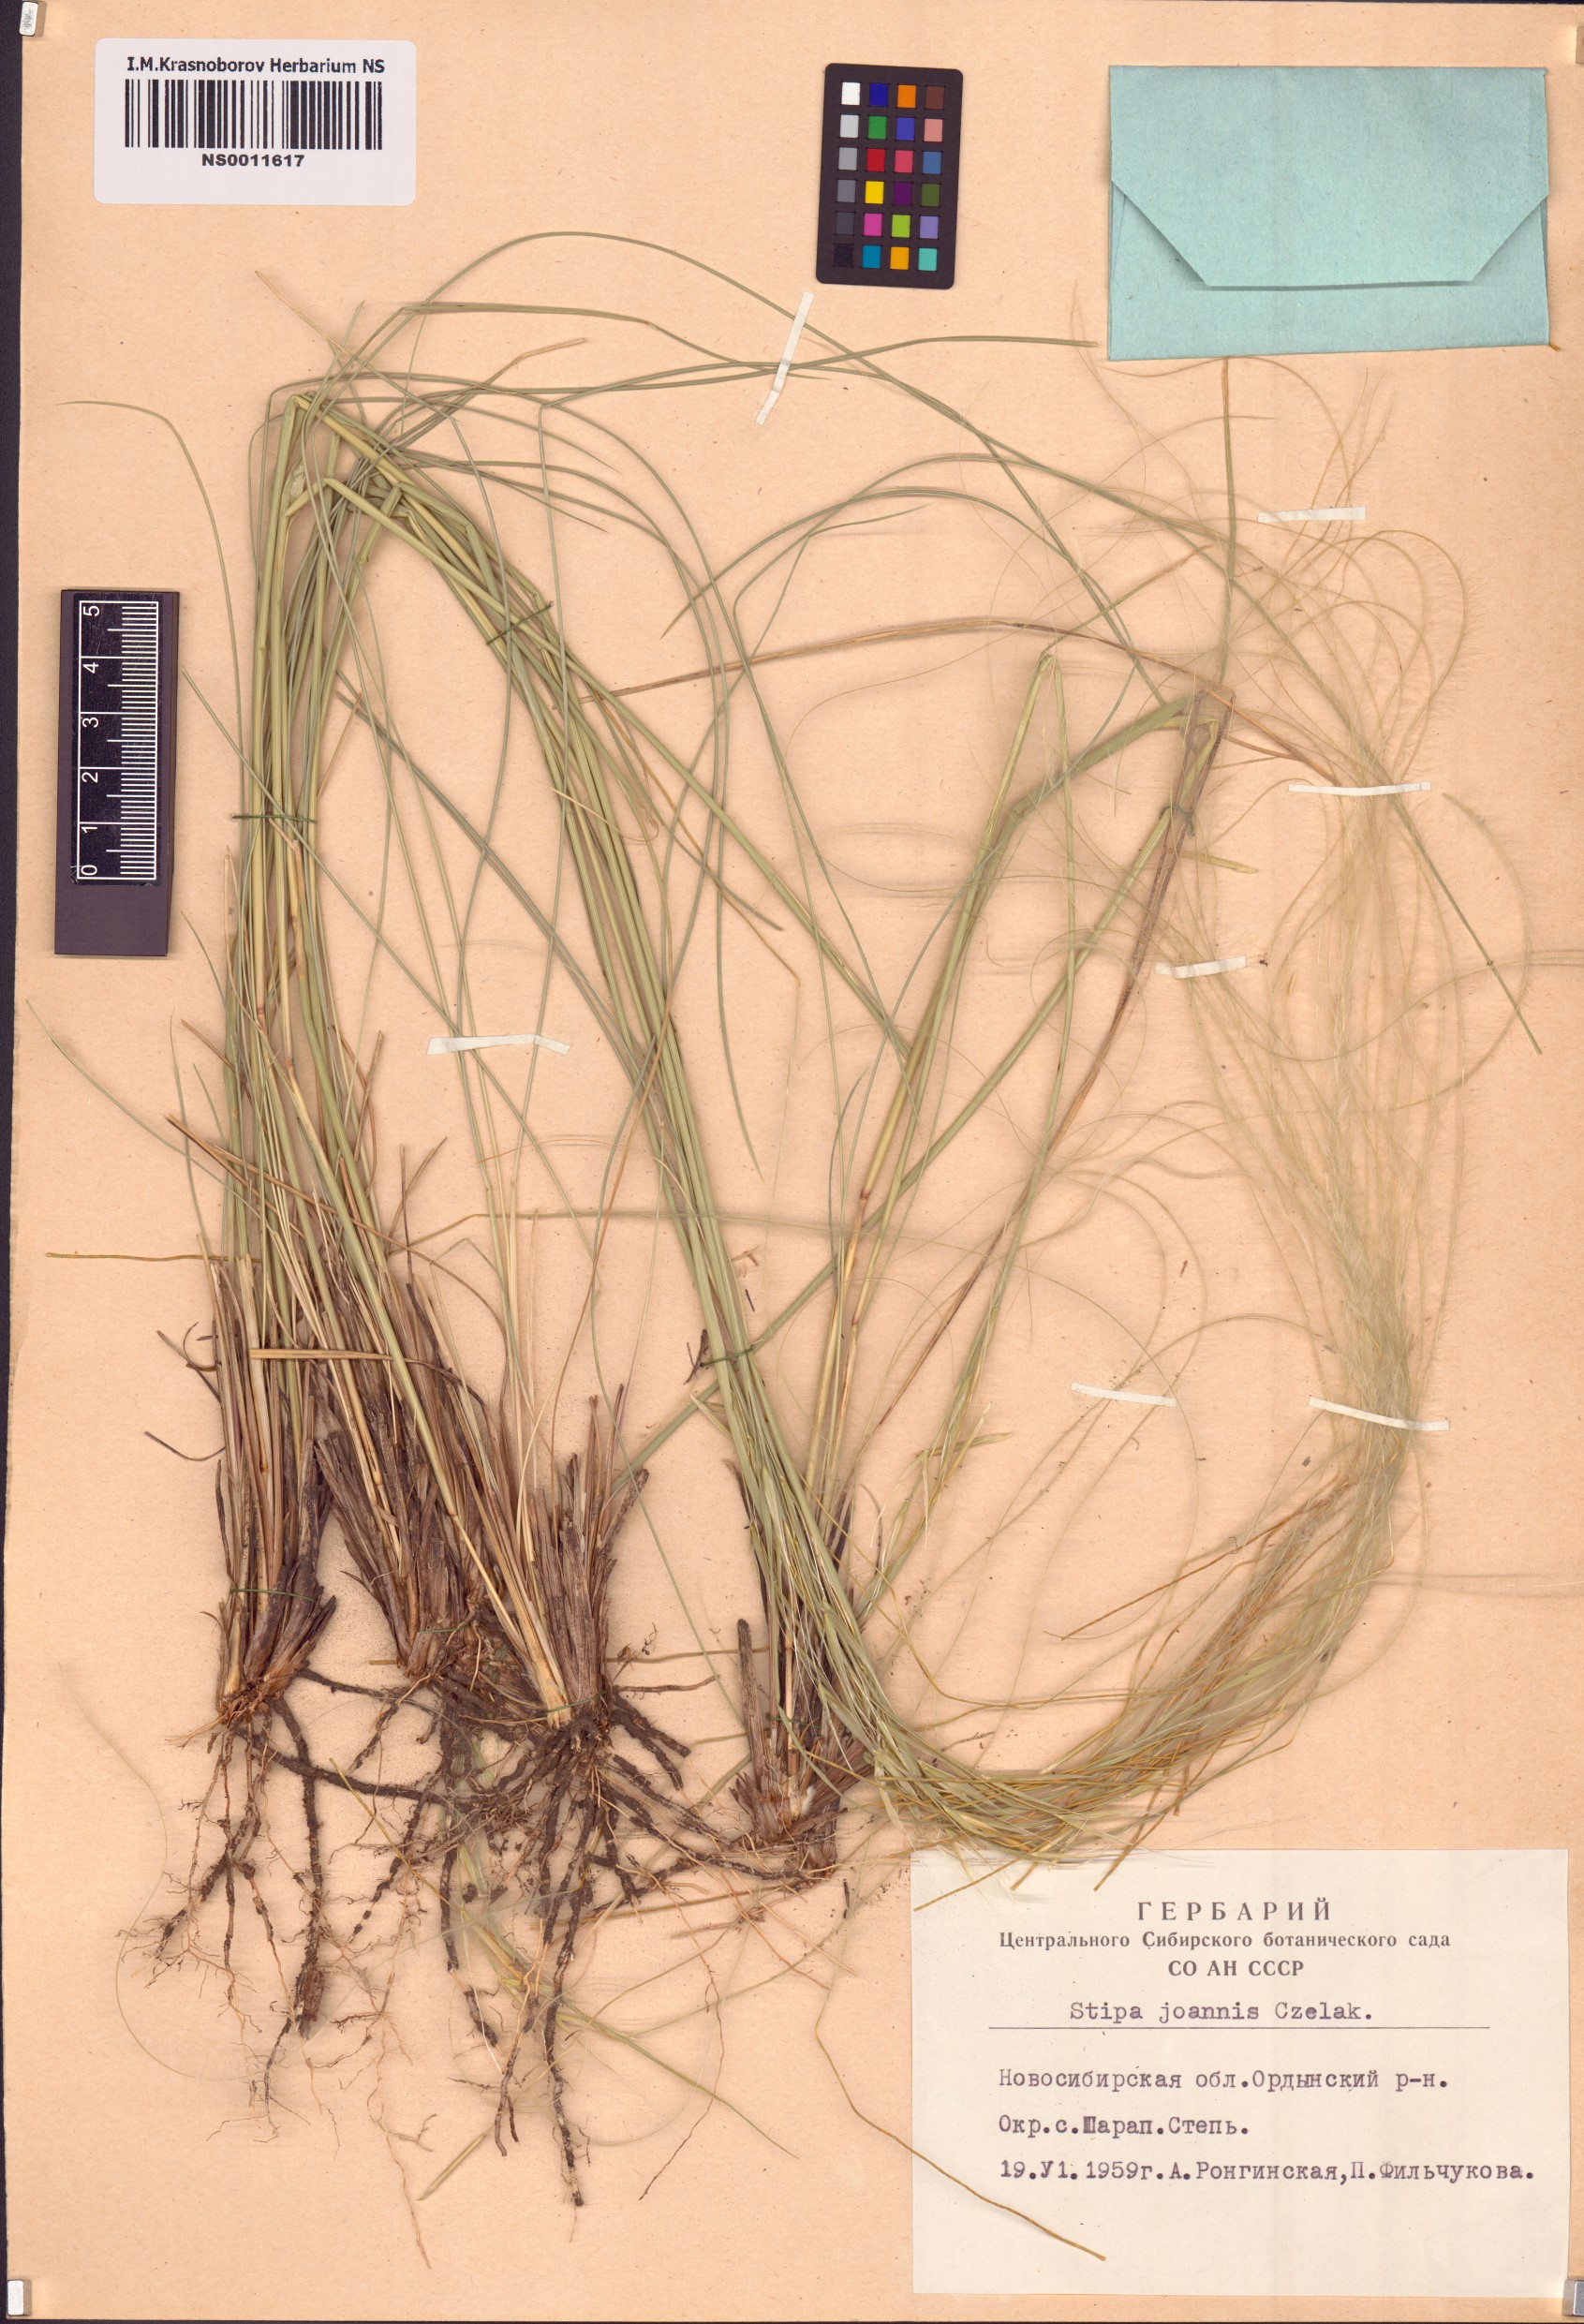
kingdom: Plantae
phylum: Tracheophyta
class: Liliopsida
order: Poales
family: Poaceae
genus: Stipa
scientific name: Stipa pennata
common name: European feather grass
